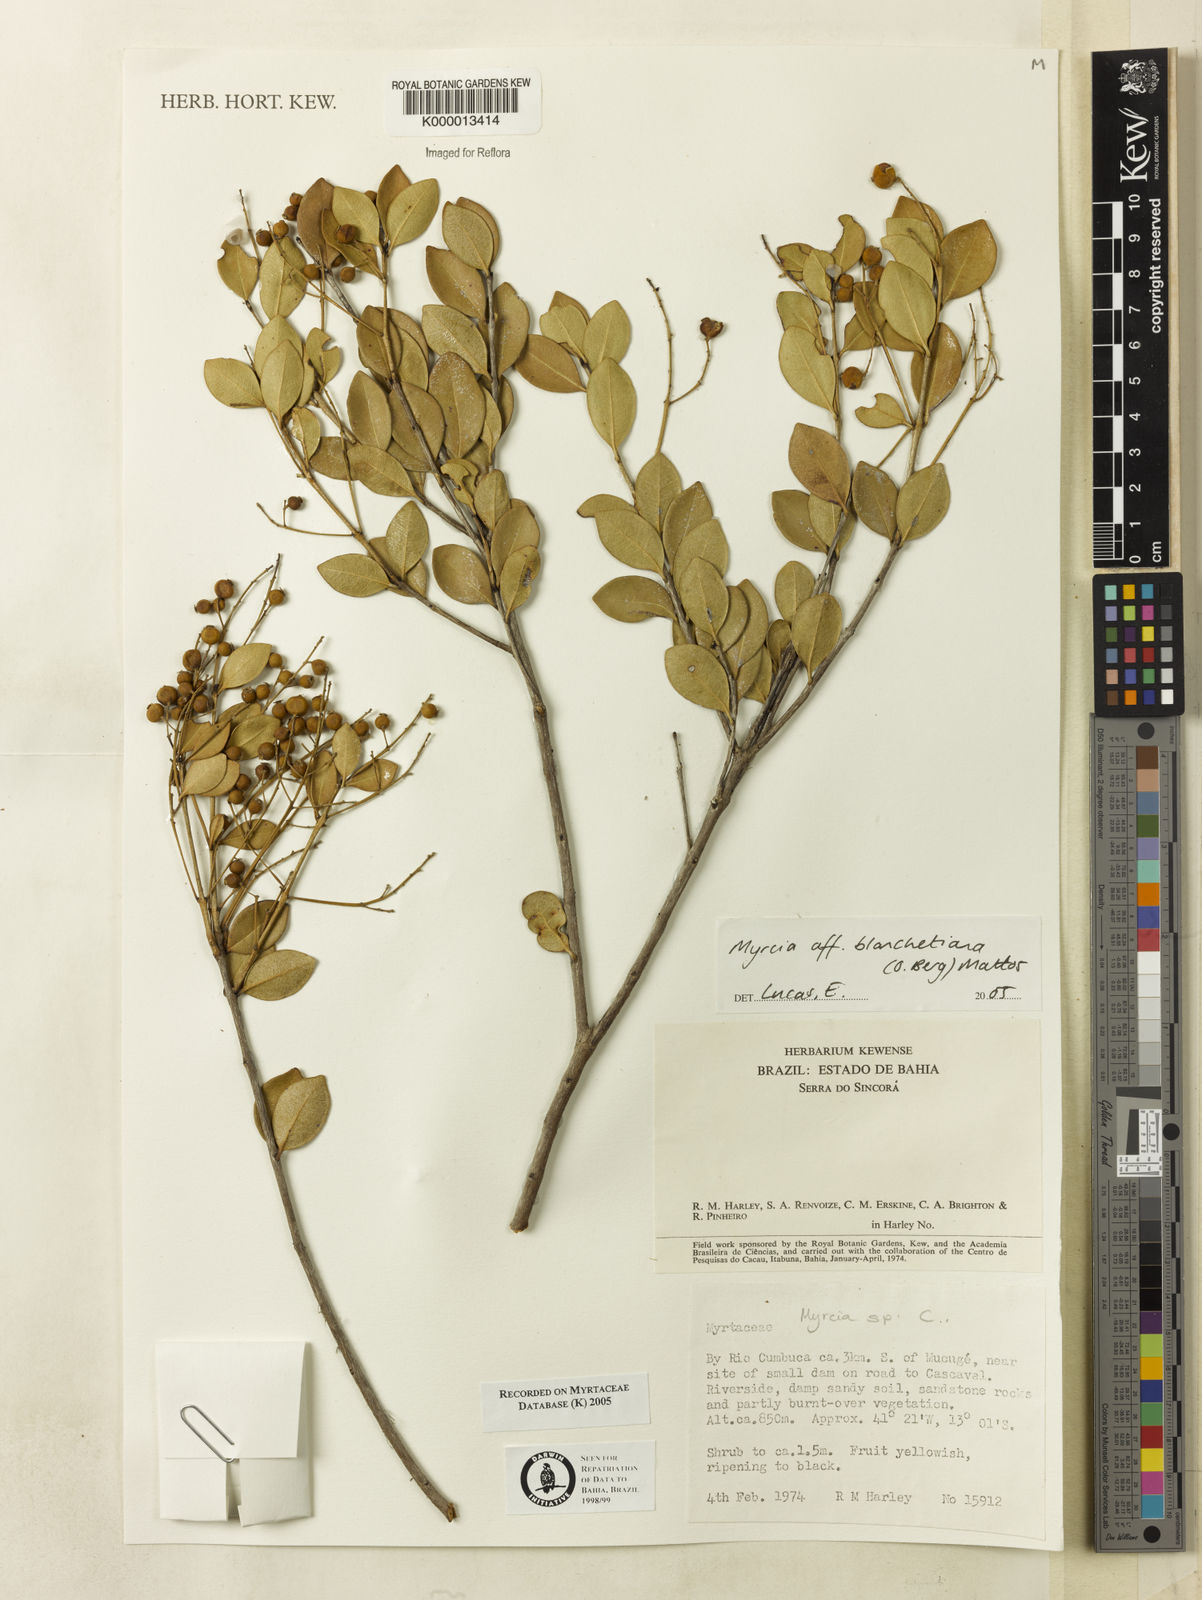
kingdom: Plantae
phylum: Tracheophyta
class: Magnoliopsida
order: Myrtales
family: Myrtaceae
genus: Myrcia
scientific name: Myrcia
